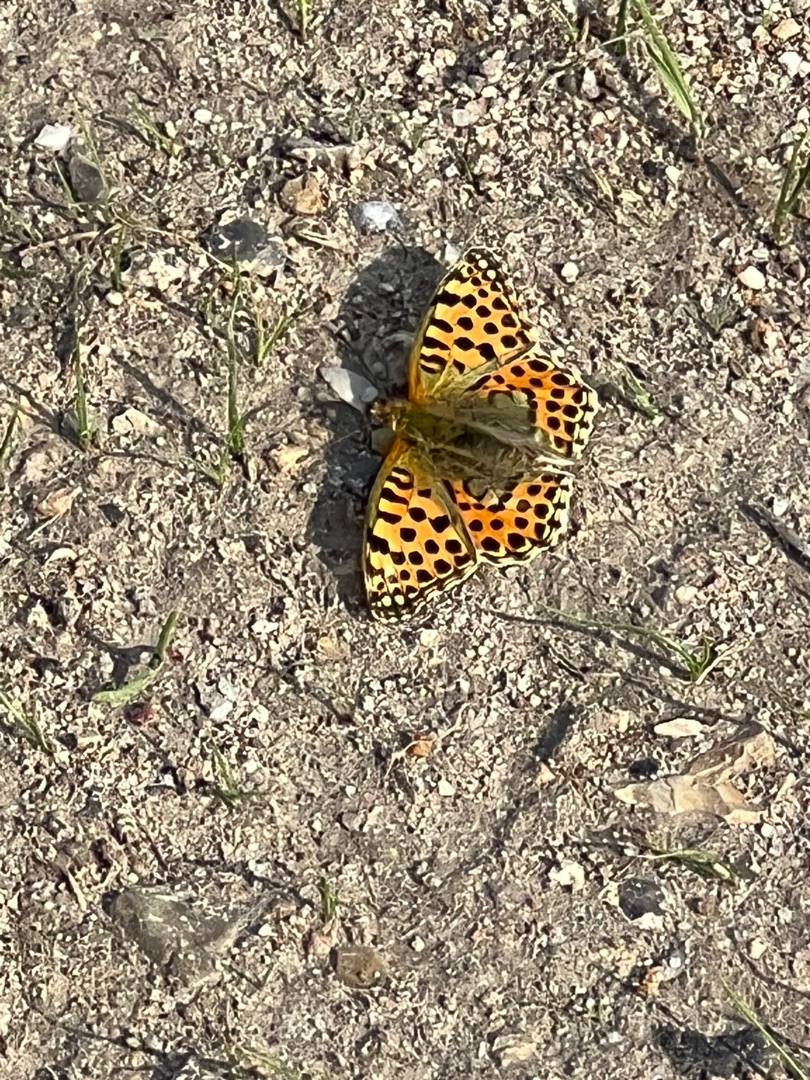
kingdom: Animalia
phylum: Arthropoda
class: Insecta
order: Lepidoptera
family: Nymphalidae
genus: Issoria
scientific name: Issoria lathonia
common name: Storplettet perlemorsommerfugl
